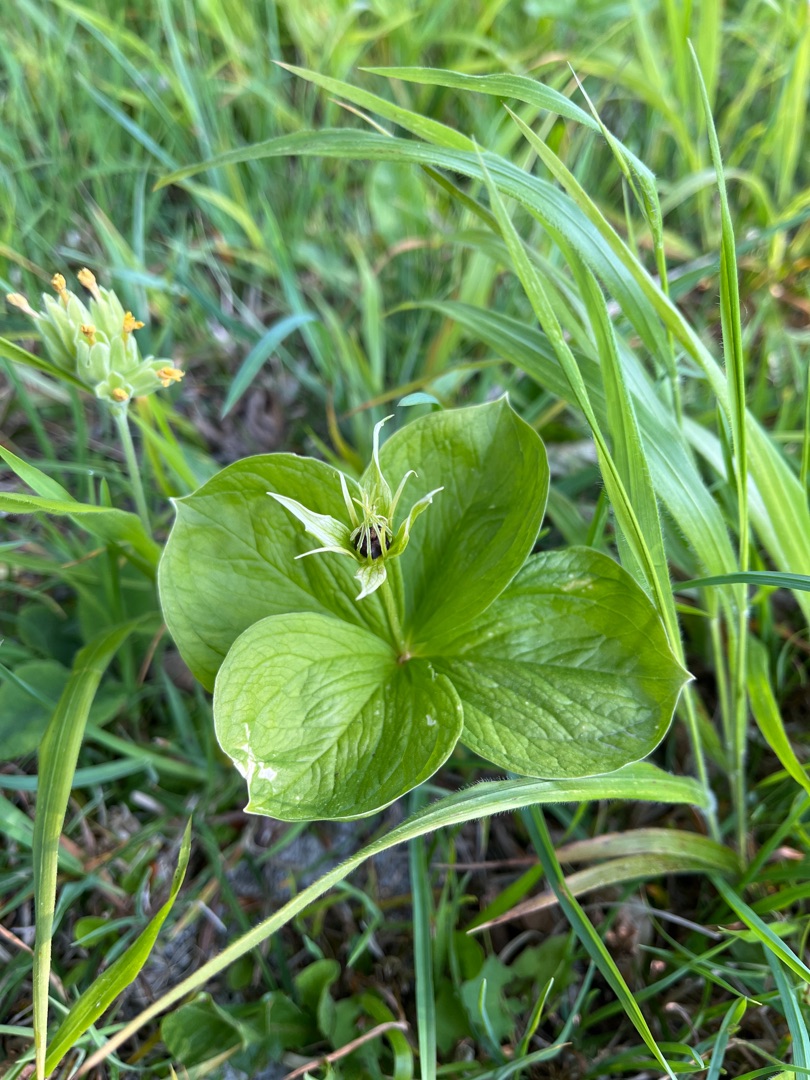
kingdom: Plantae
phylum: Tracheophyta
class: Liliopsida
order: Liliales
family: Melanthiaceae
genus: Paris
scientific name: Paris quadrifolia
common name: Firblad
